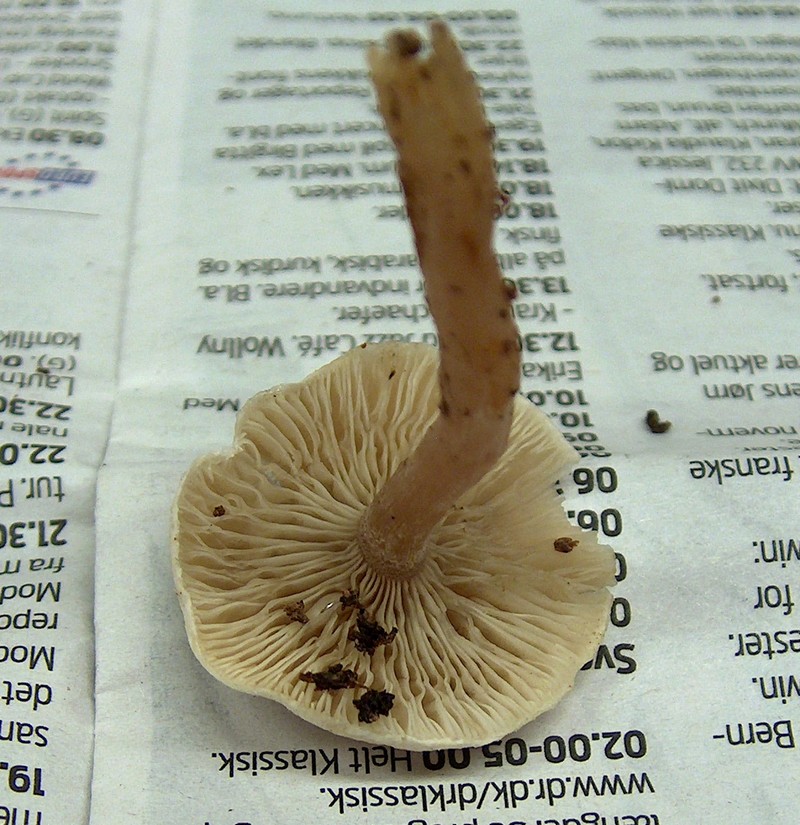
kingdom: Fungi
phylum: Basidiomycota
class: Agaricomycetes
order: Agaricales
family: Tricholomataceae
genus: Ripartites
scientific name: Ripartites tricholoma
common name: almindelig skæghat
